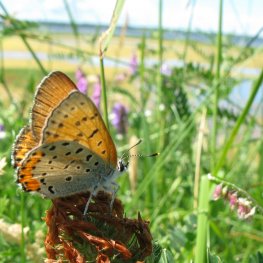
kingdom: Animalia
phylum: Arthropoda
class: Insecta
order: Lepidoptera
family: Sesiidae
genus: Sesia
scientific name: Sesia Lycaena hyllus
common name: Bronze Copper
